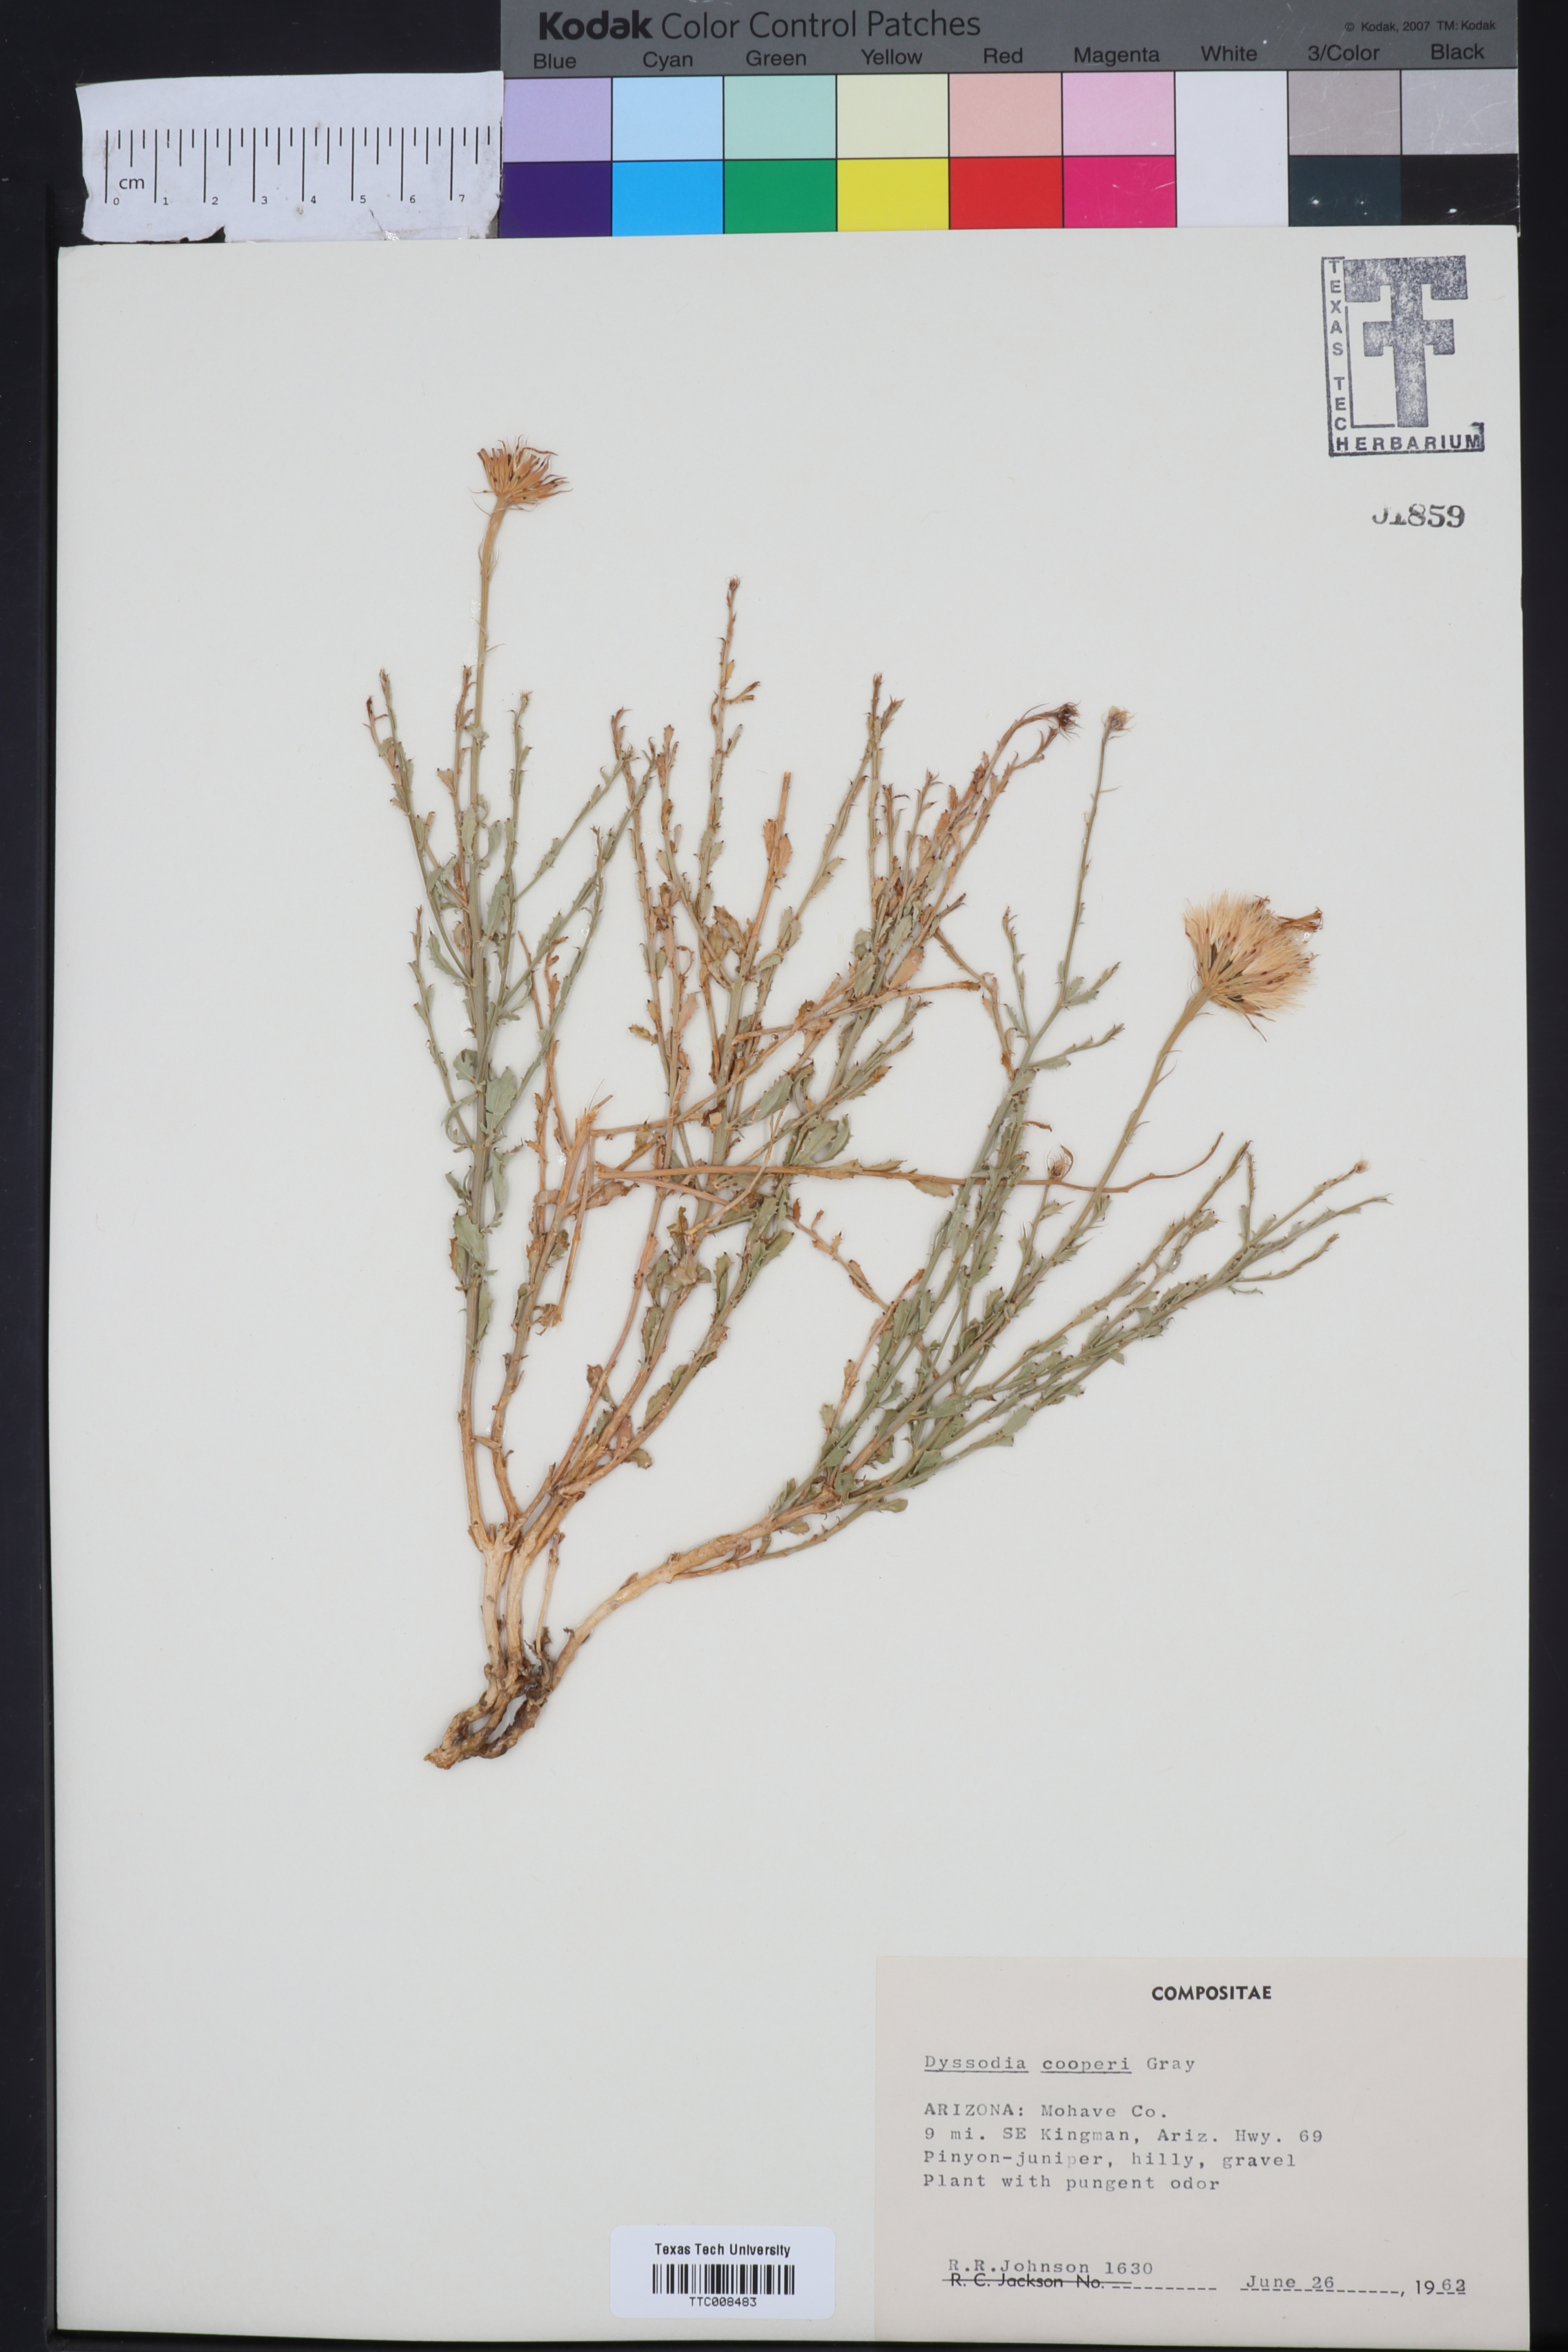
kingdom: Plantae
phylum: Tracheophyta
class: Magnoliopsida
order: Asterales
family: Asteraceae
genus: Adenophyllum
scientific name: Adenophyllum cooperi
